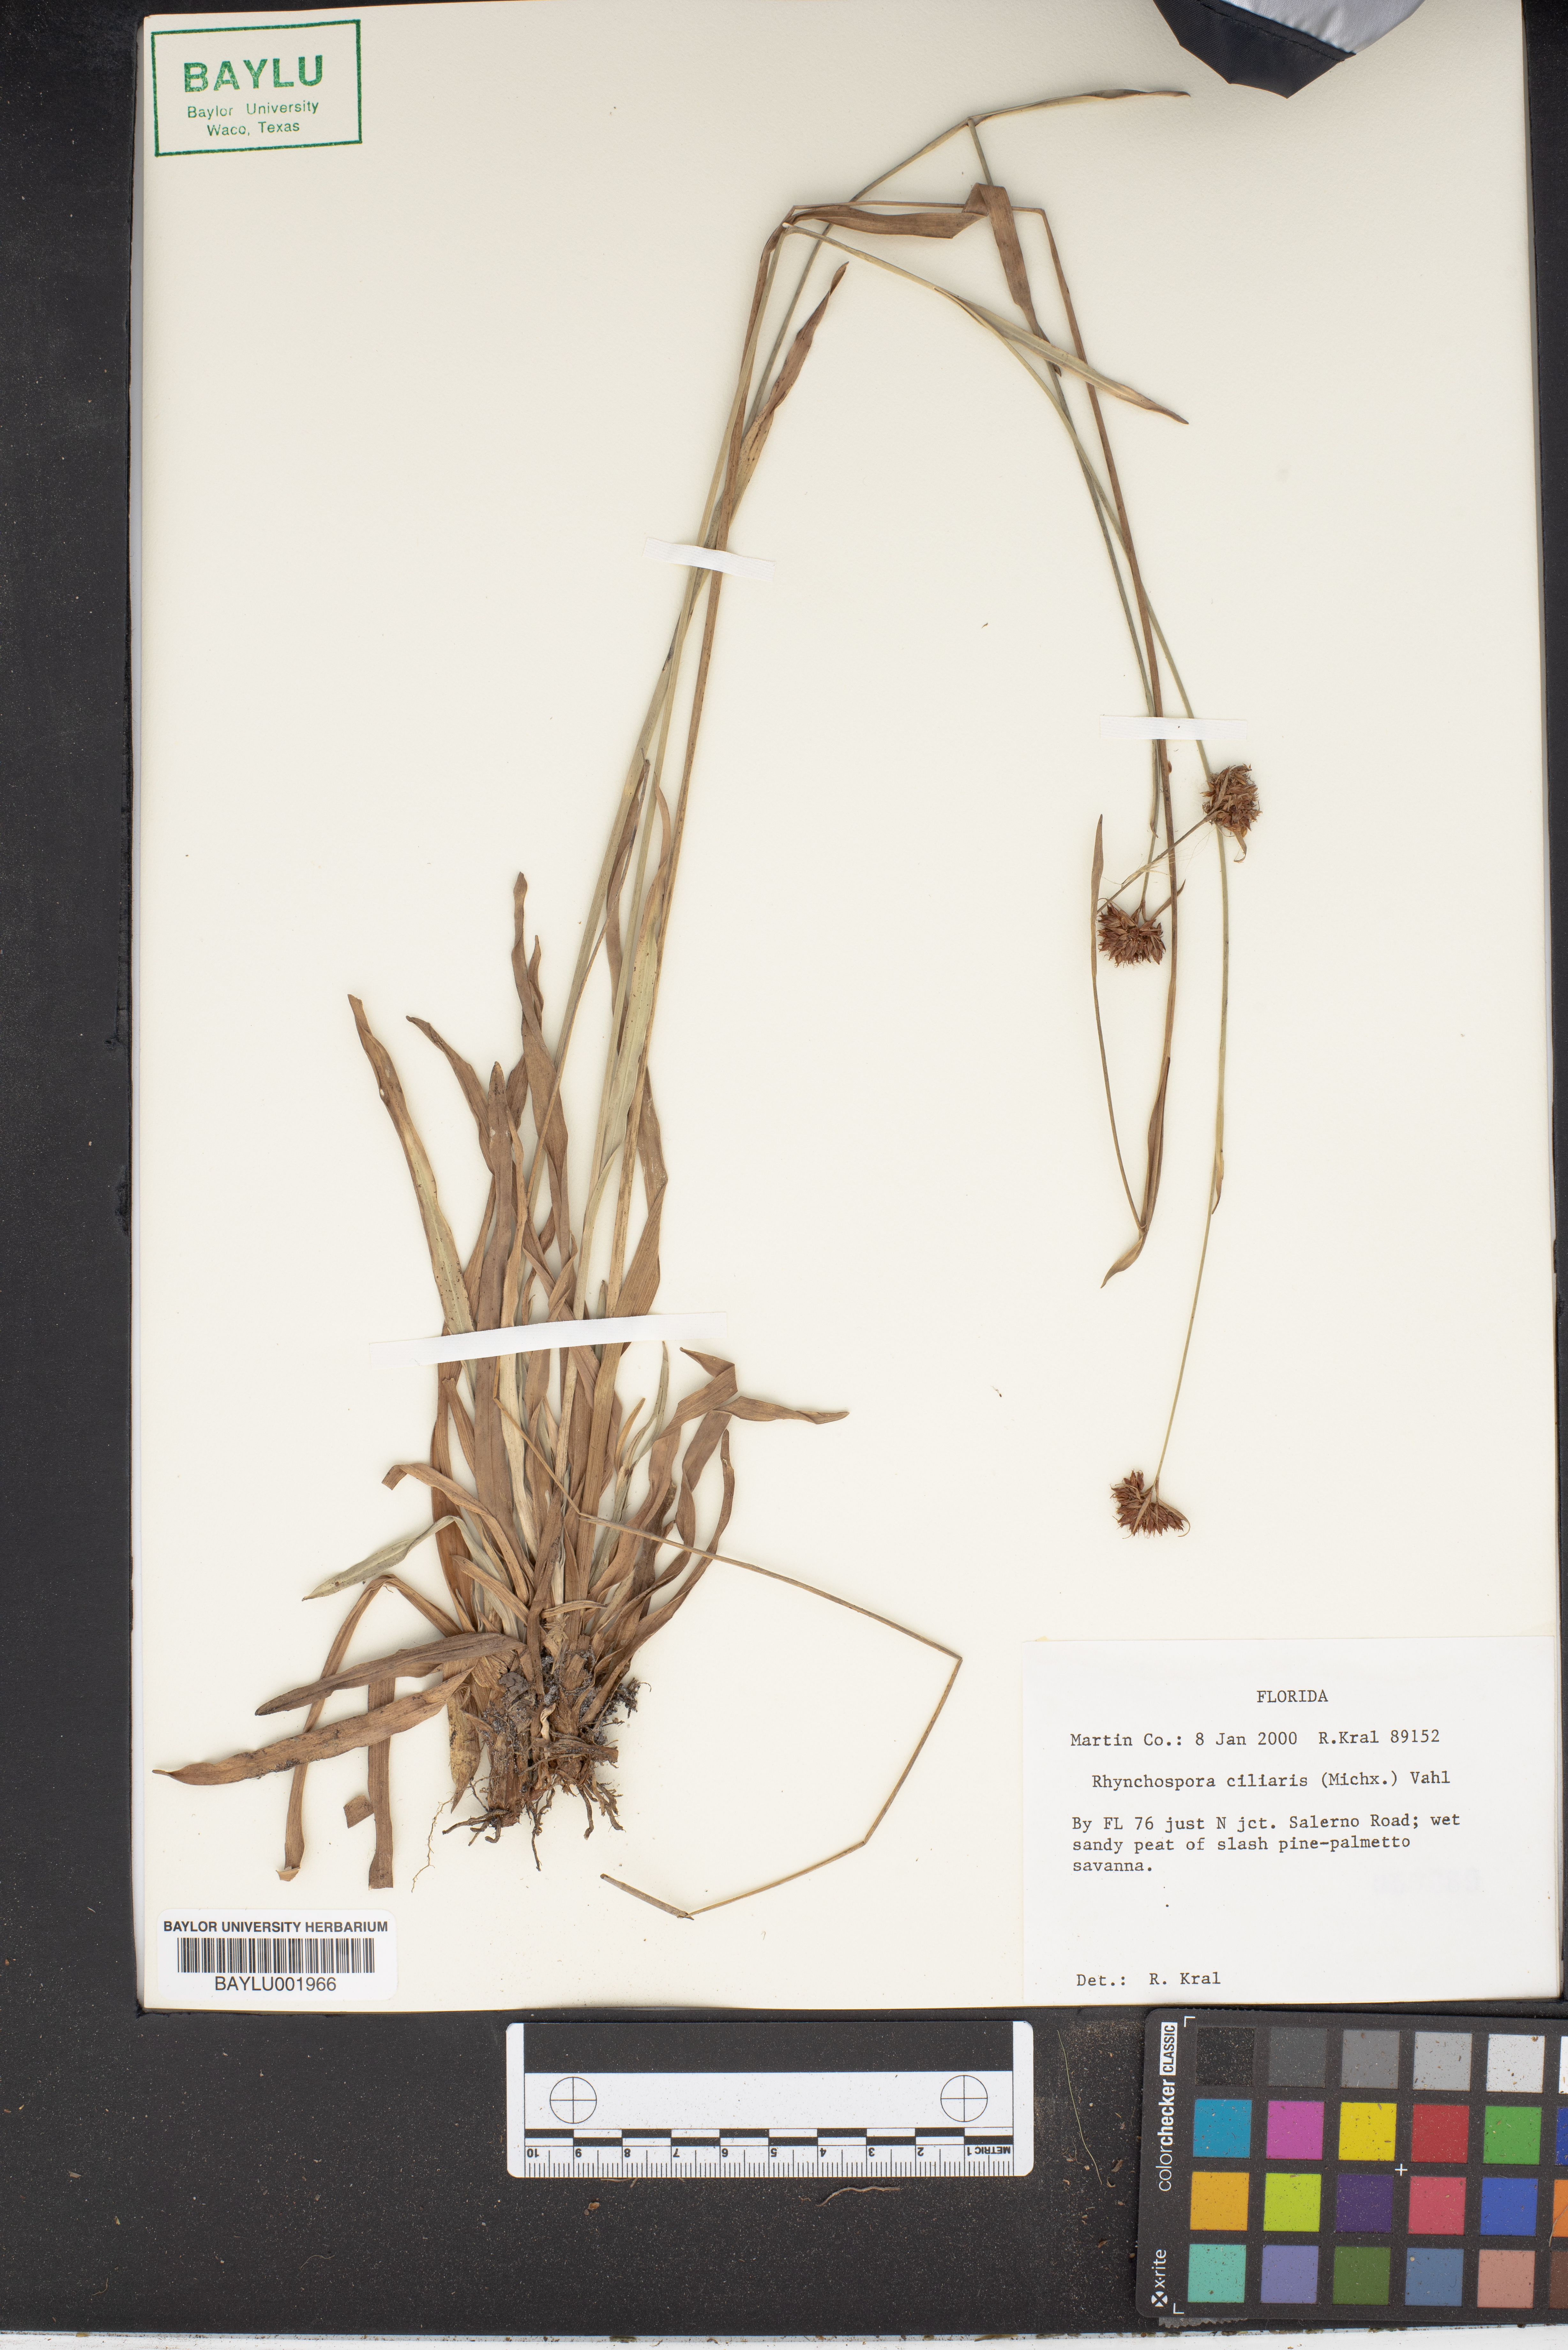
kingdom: Plantae
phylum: Tracheophyta
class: Liliopsida
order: Poales
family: Cyperaceae
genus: Rhynchospora
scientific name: Rhynchospora ciliaris
